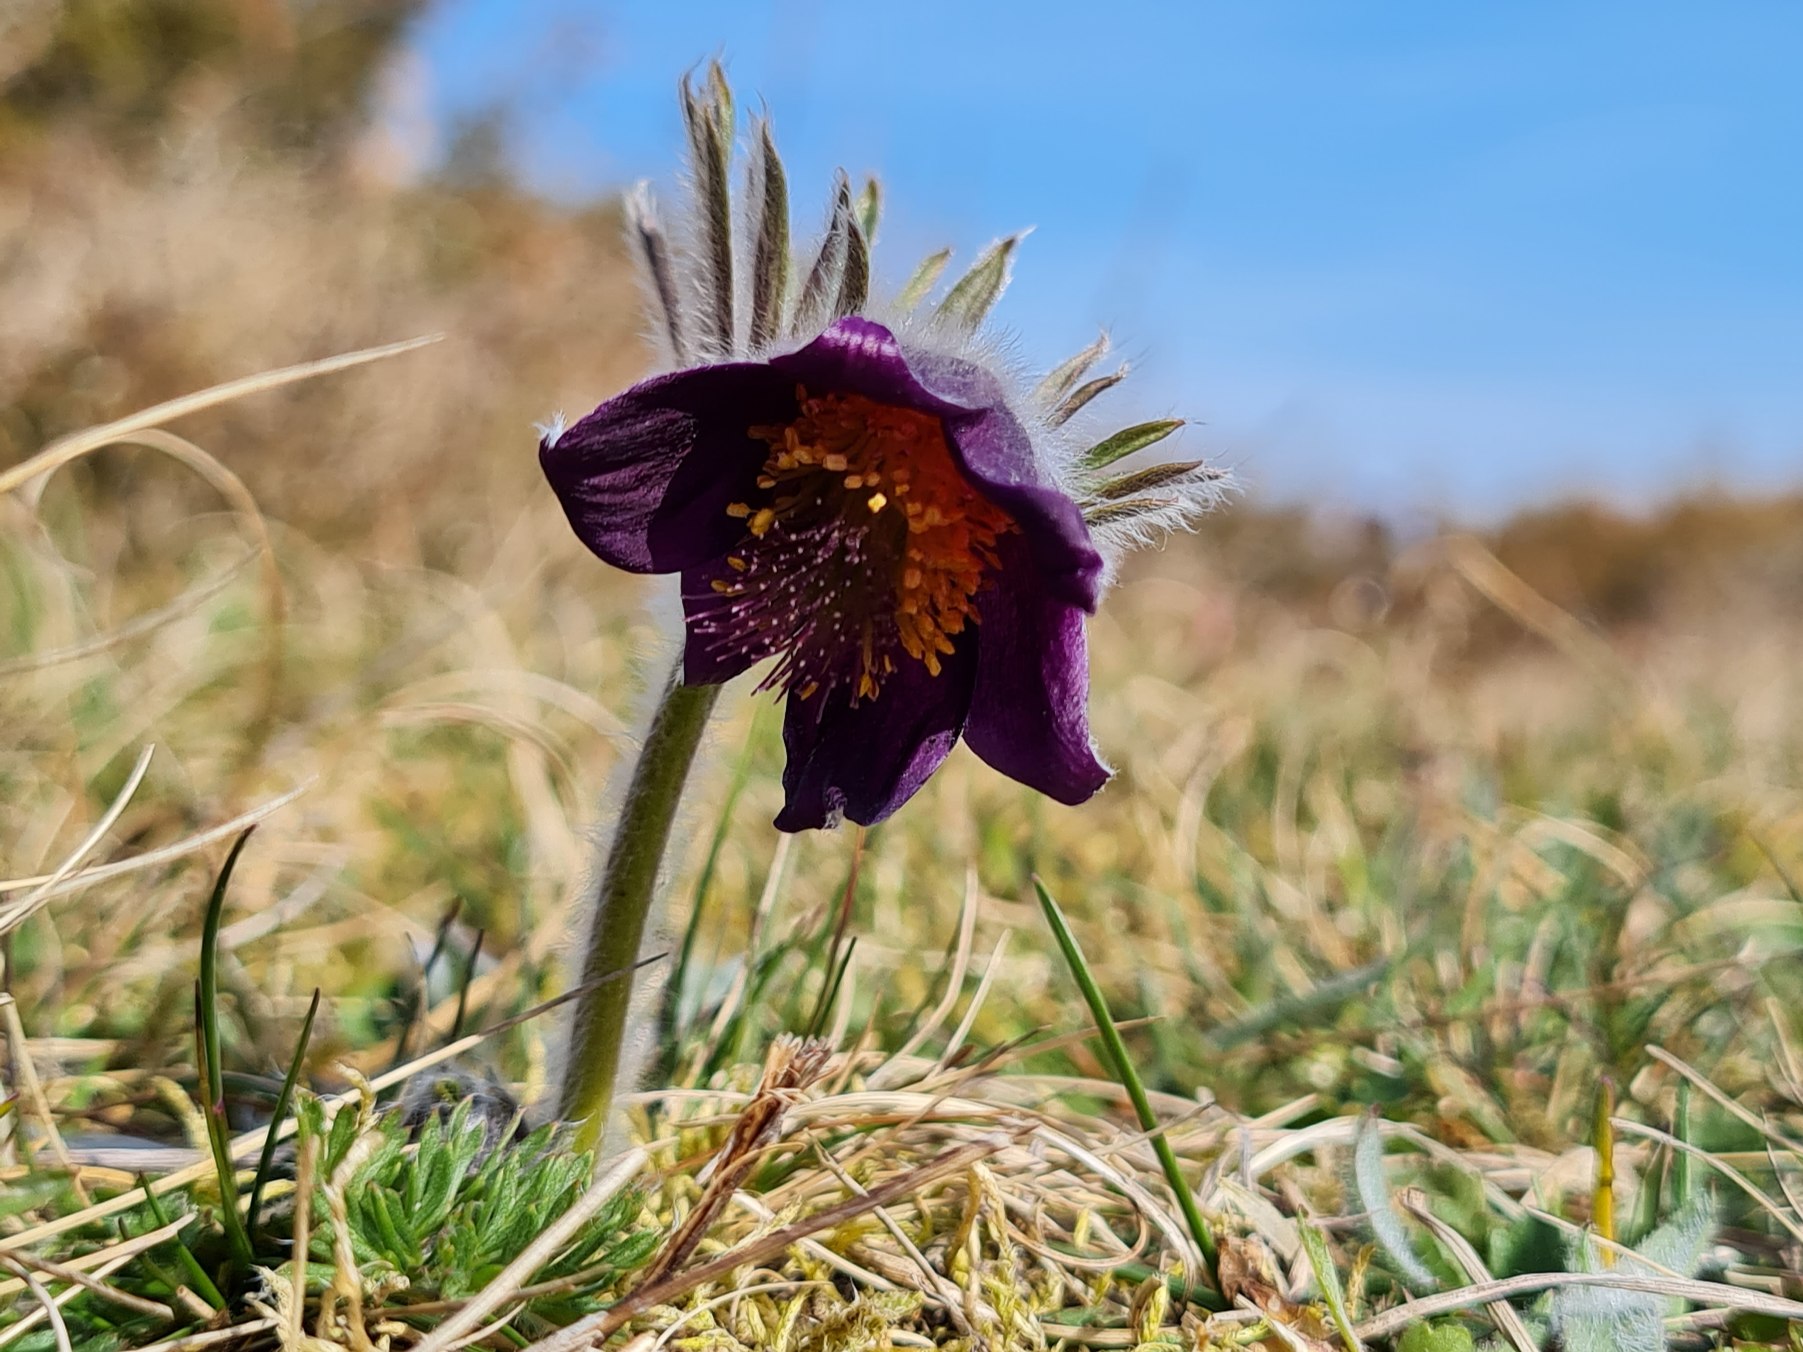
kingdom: Plantae
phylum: Tracheophyta
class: Magnoliopsida
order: Ranunculales
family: Ranunculaceae
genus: Pulsatilla
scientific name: Pulsatilla pratensis
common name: Nikkende kobjælde
